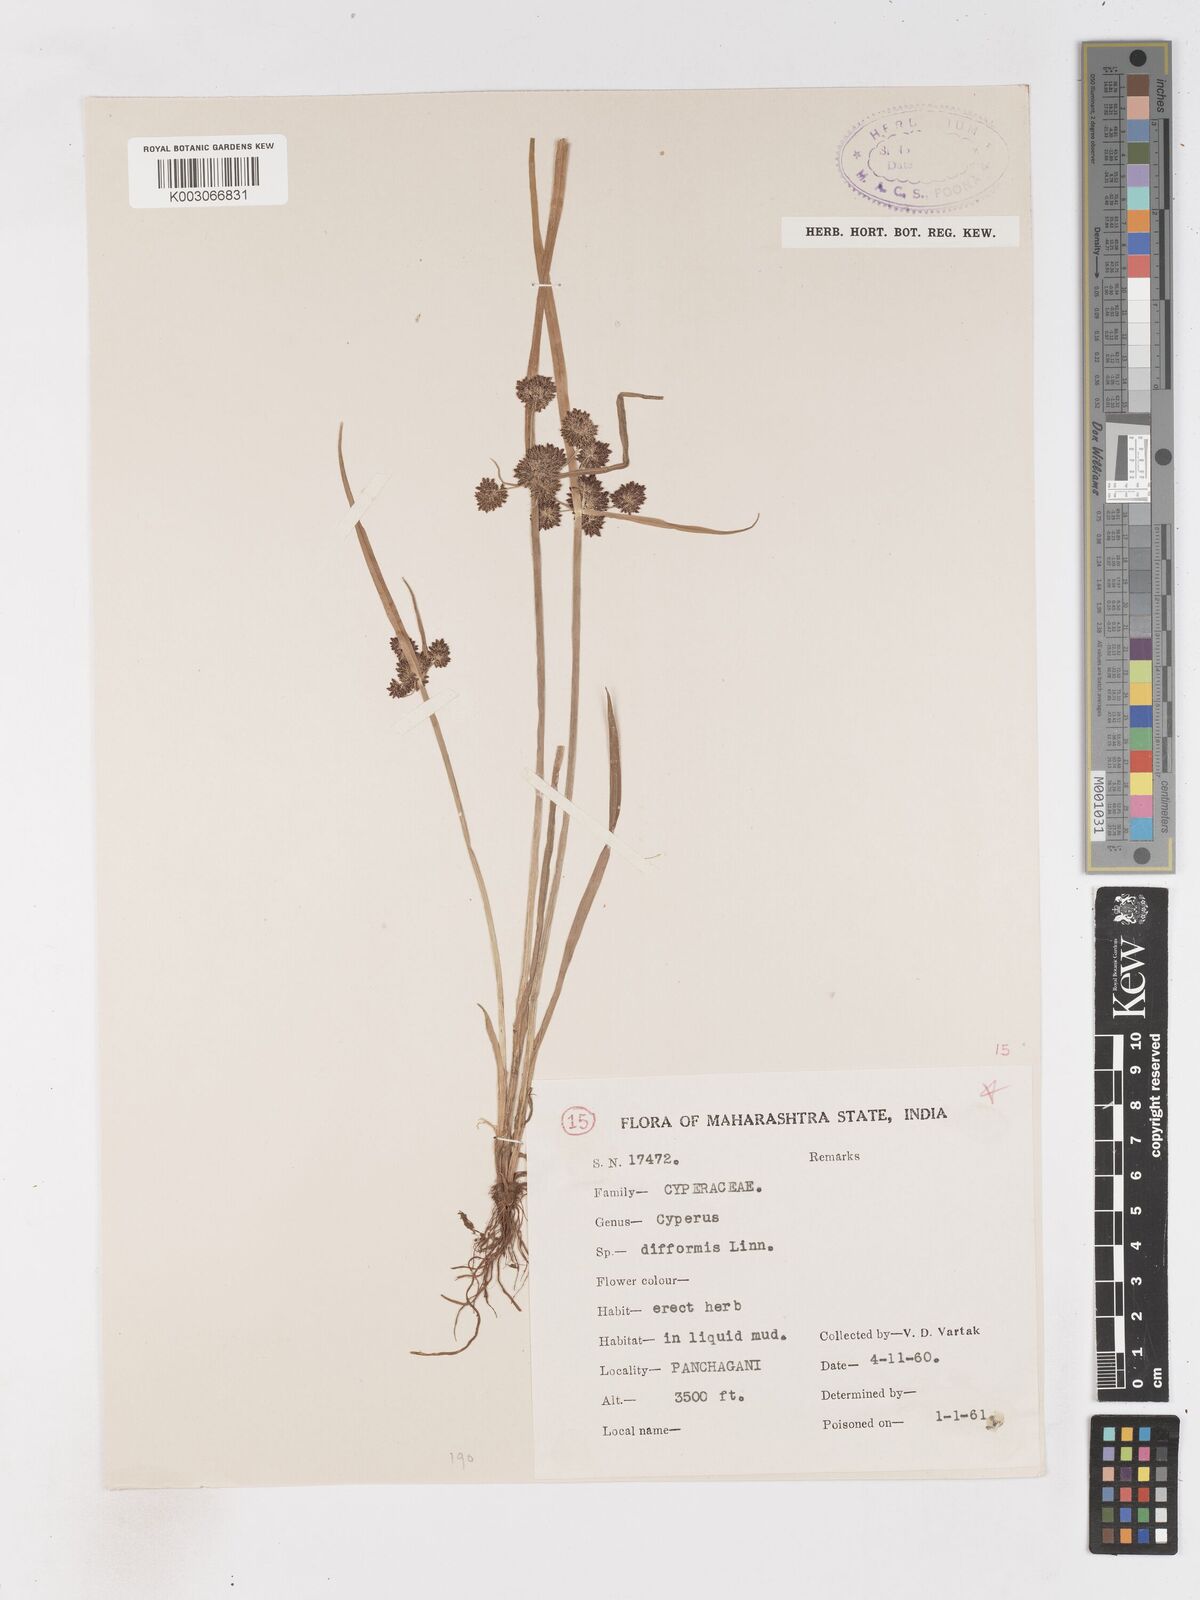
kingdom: Plantae
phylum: Tracheophyta
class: Liliopsida
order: Poales
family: Cyperaceae
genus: Cyperus
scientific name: Cyperus difformis
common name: Variable flatsedge
